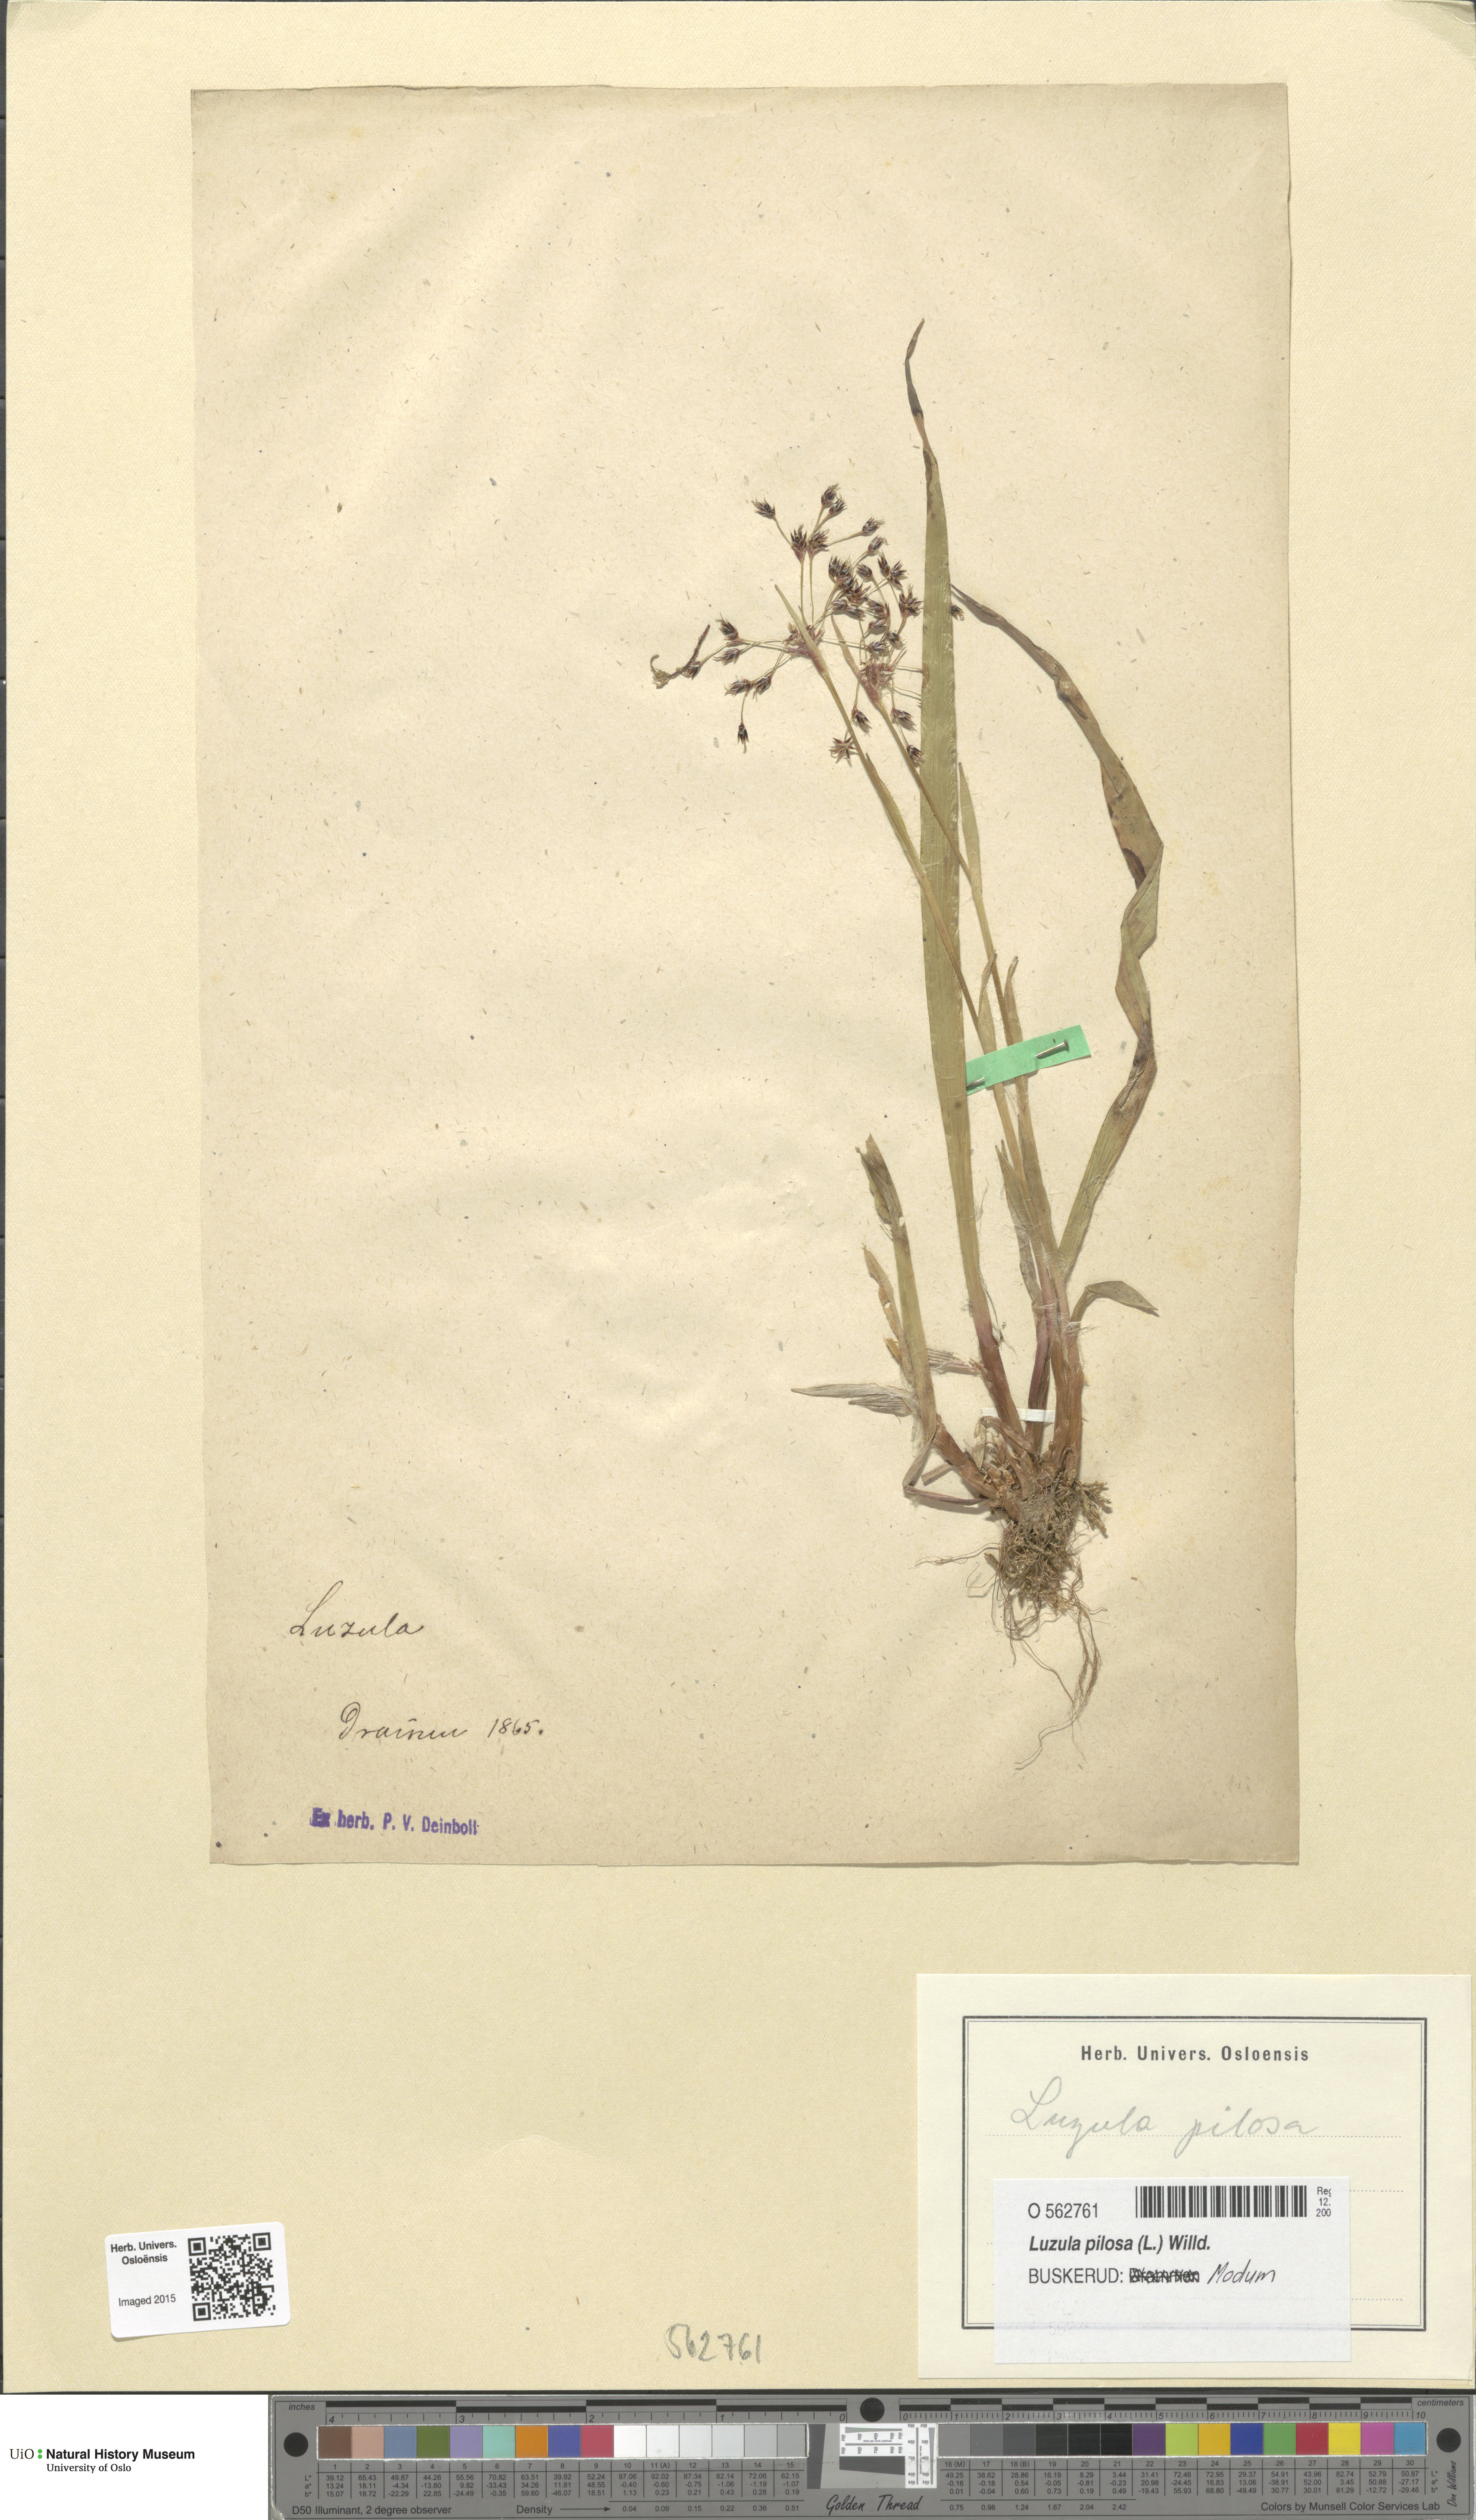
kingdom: Plantae
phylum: Tracheophyta
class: Liliopsida
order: Poales
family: Juncaceae
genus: Luzula
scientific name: Luzula pilosa
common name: Hairy wood-rush
